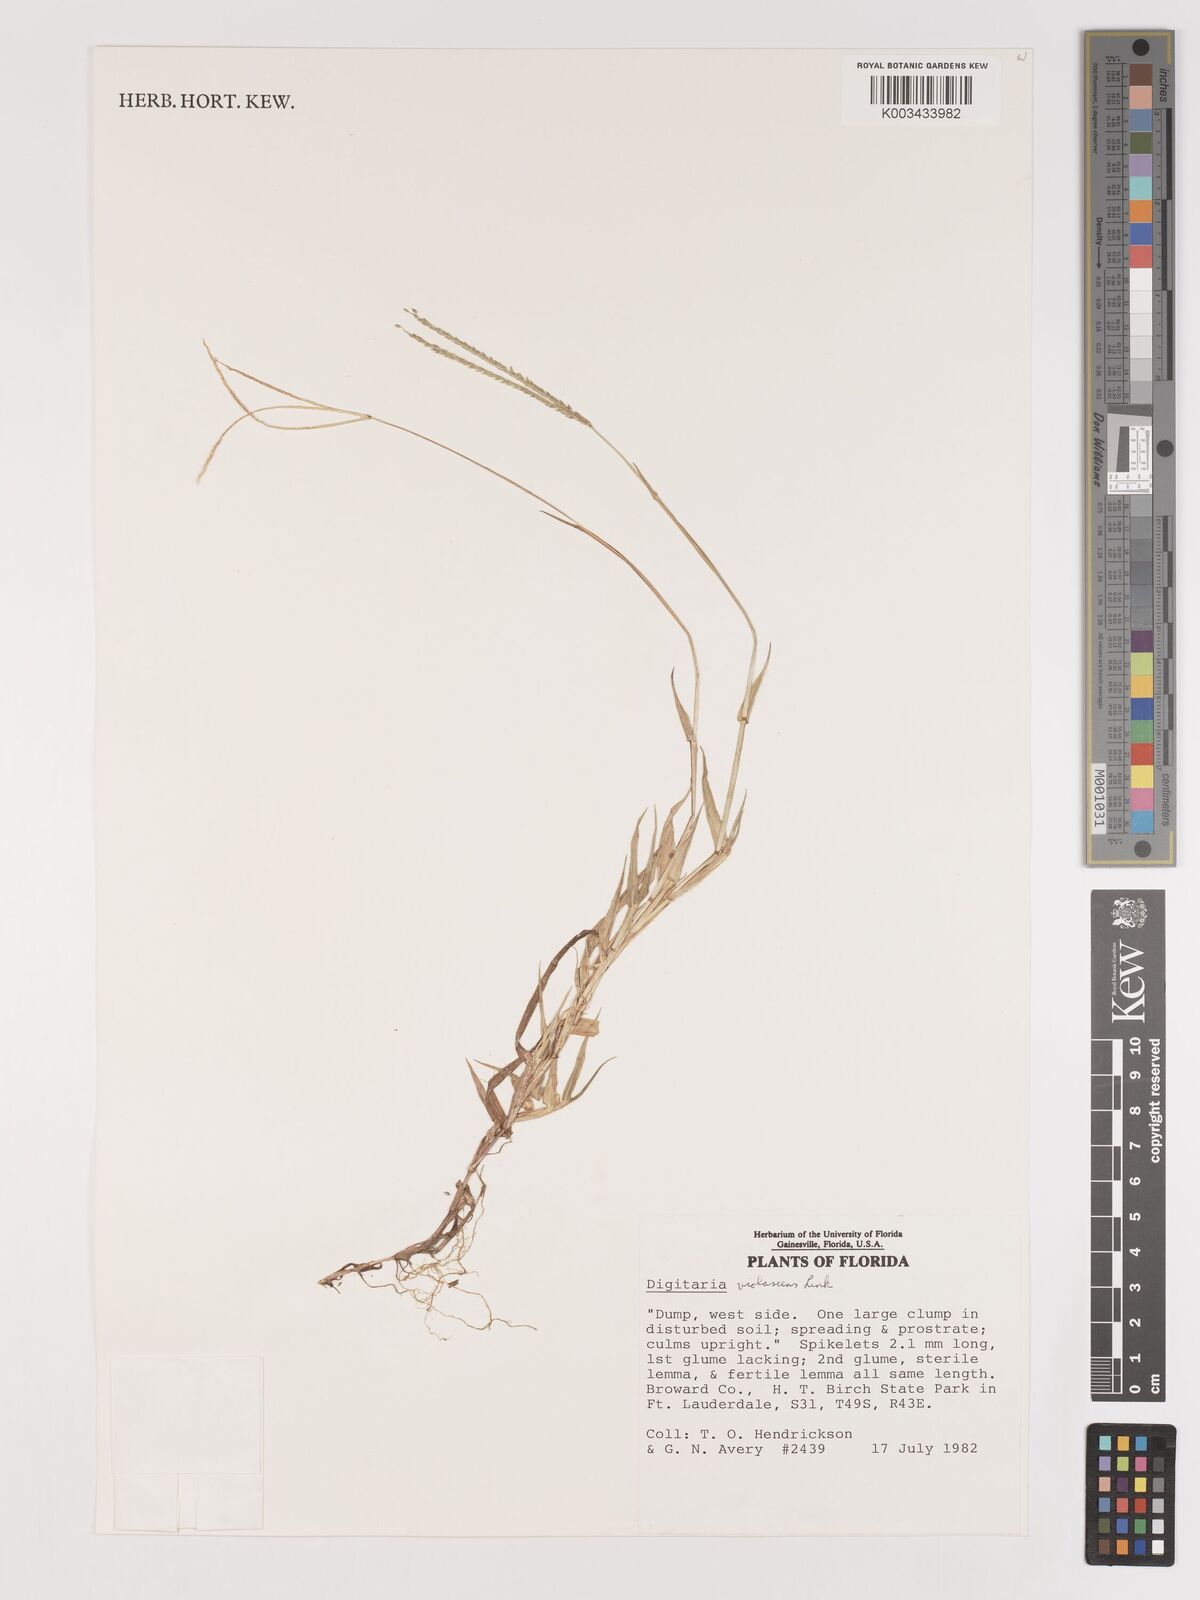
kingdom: Plantae
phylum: Tracheophyta
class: Liliopsida
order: Poales
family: Poaceae
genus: Digitaria
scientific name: Digitaria violascens
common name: Violet crabgrass
